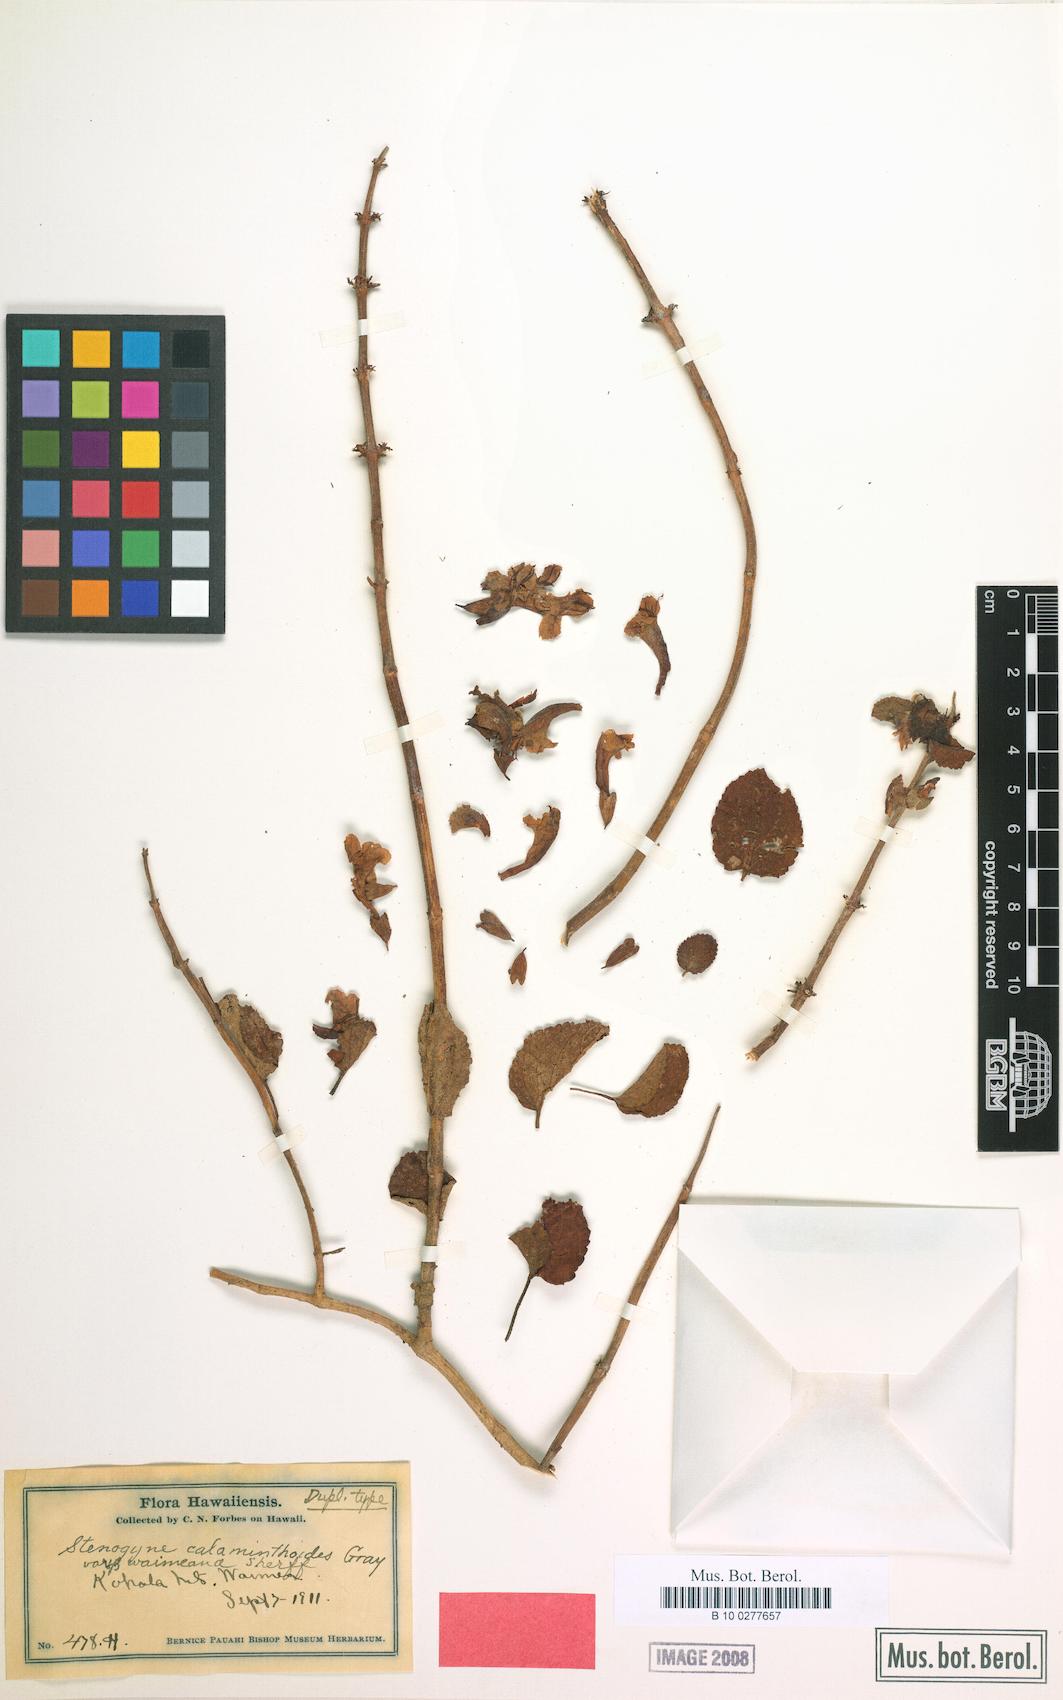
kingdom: Plantae
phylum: Tracheophyta
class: Magnoliopsida
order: Lamiales
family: Lamiaceae
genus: Stenogyne
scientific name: Stenogyne calaminthoides
